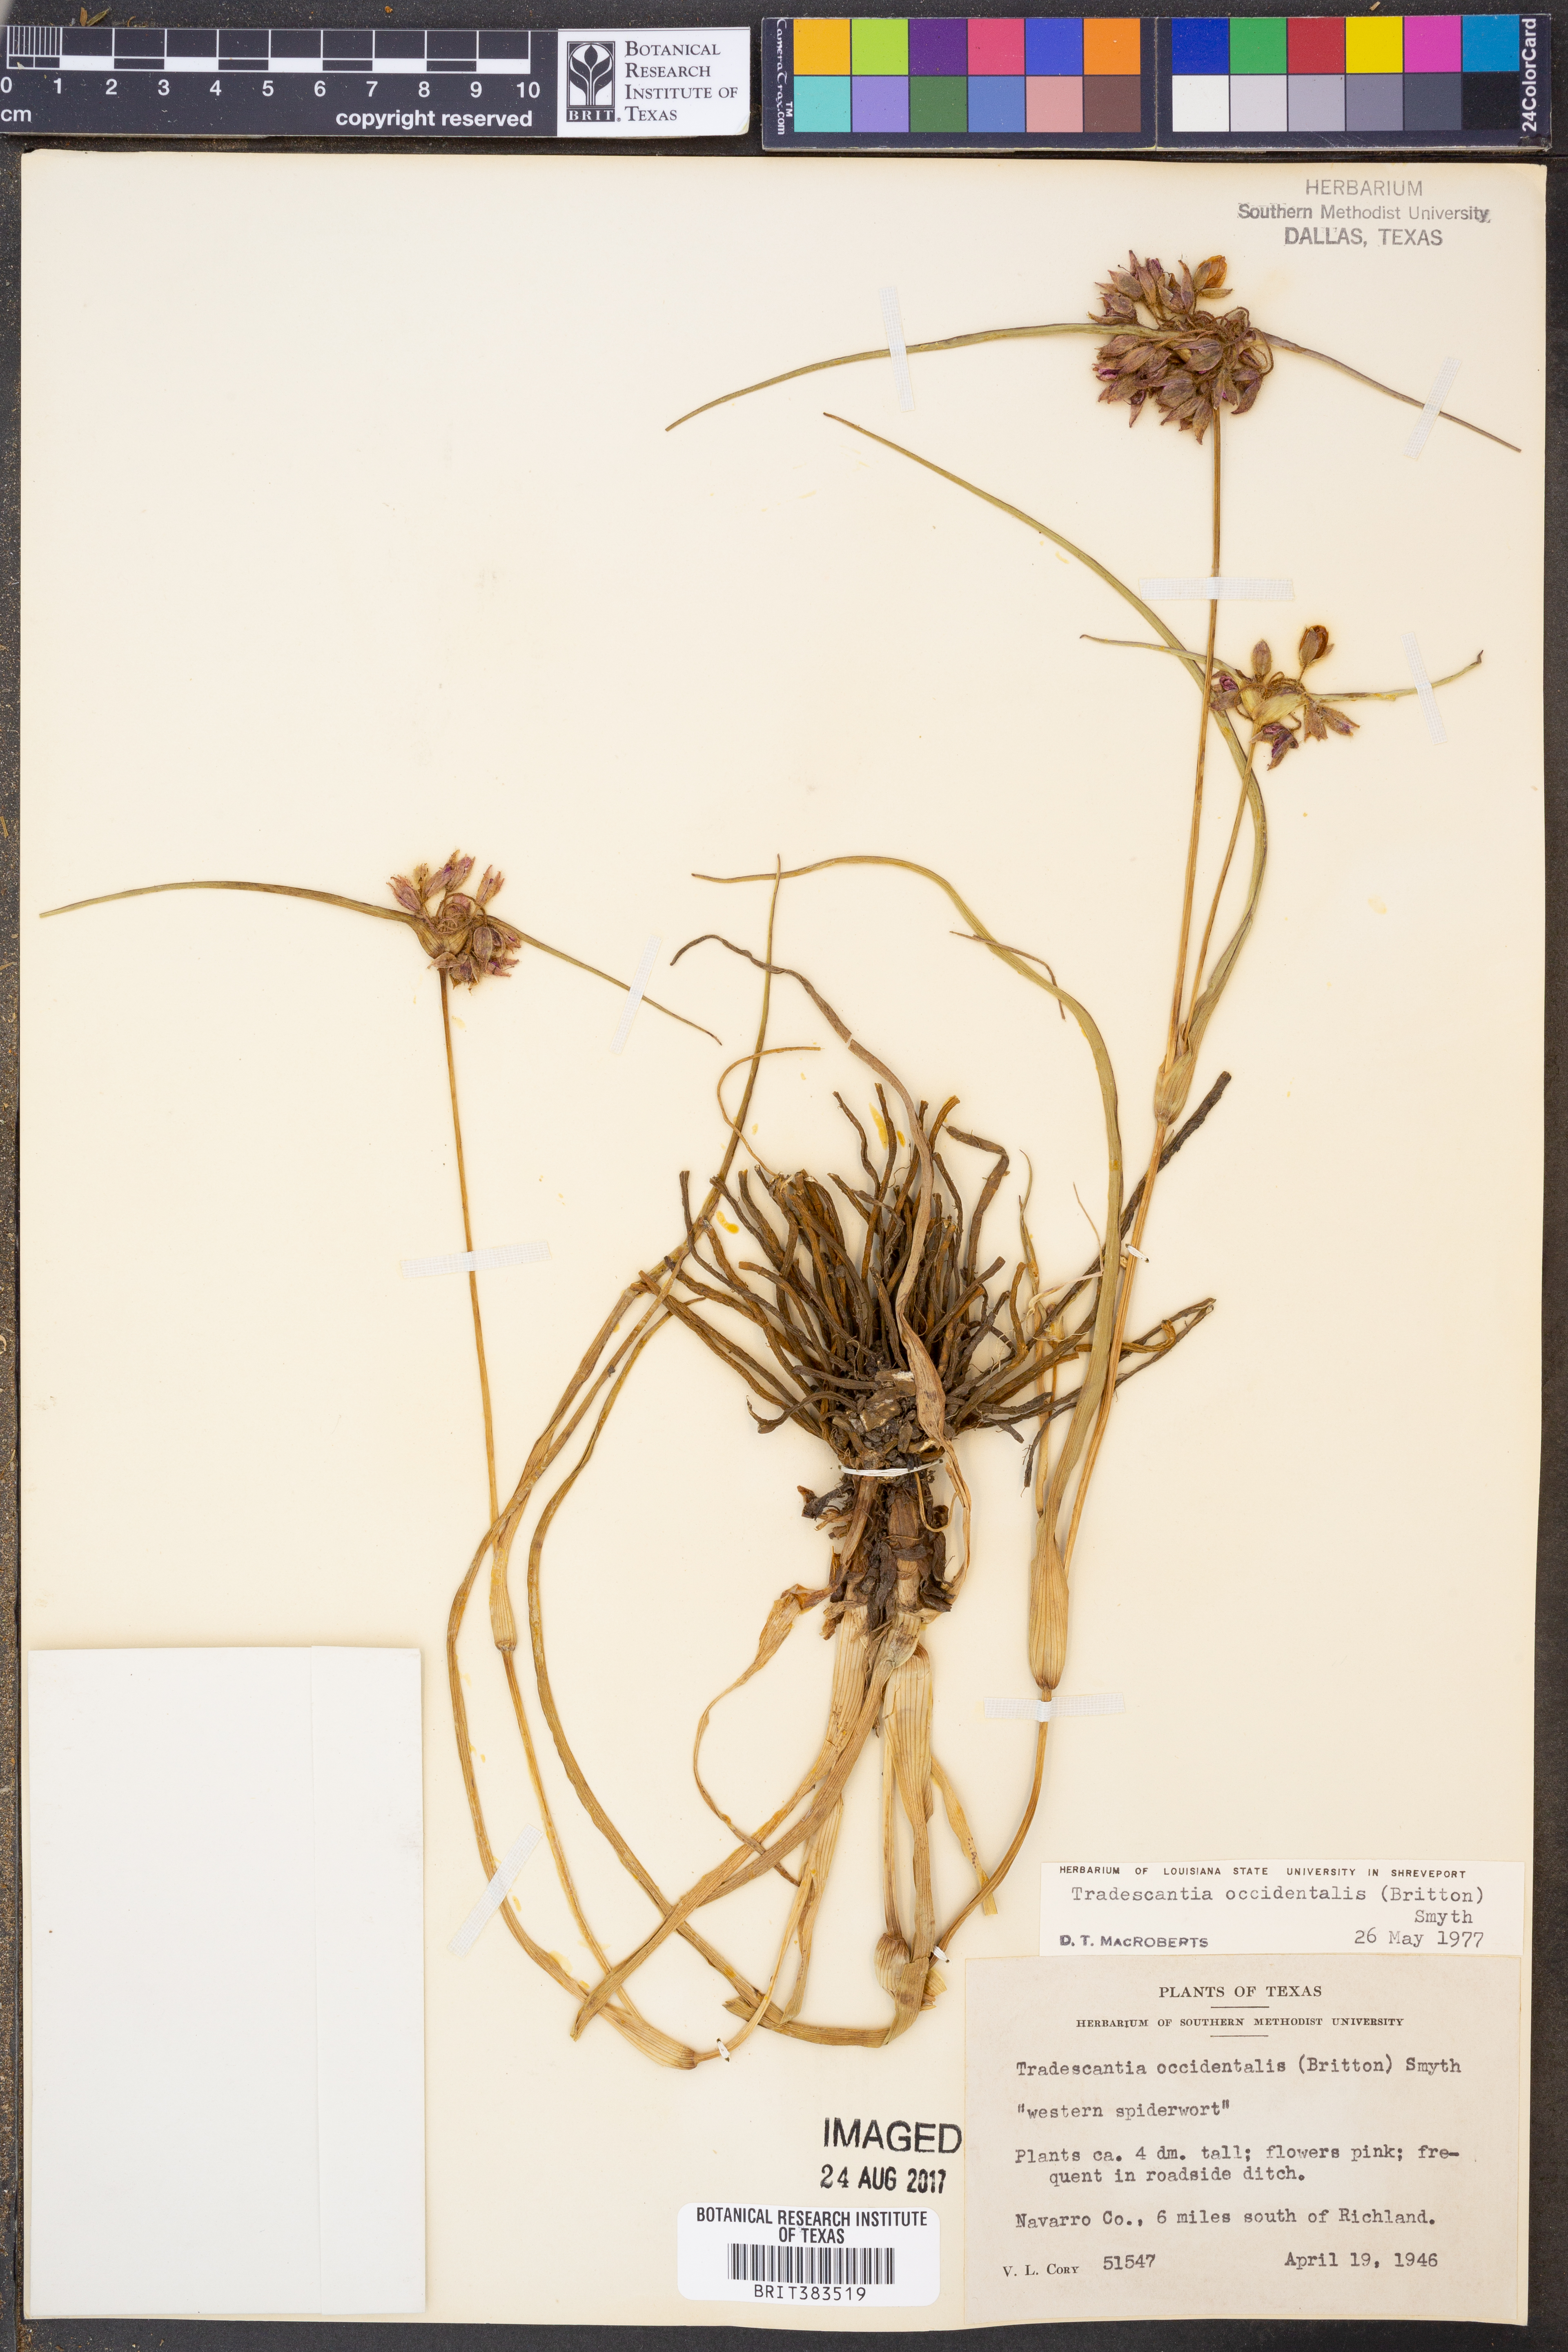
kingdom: Plantae
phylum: Tracheophyta
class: Liliopsida
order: Commelinales
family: Commelinaceae
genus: Tradescantia
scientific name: Tradescantia occidentalis
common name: Prairie spiderwort
